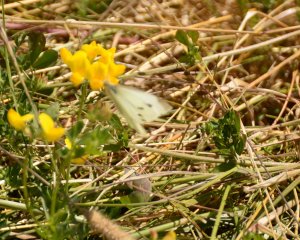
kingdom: Animalia
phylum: Arthropoda
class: Insecta
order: Lepidoptera
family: Pieridae
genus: Pieris
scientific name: Pieris rapae
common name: Cabbage White
